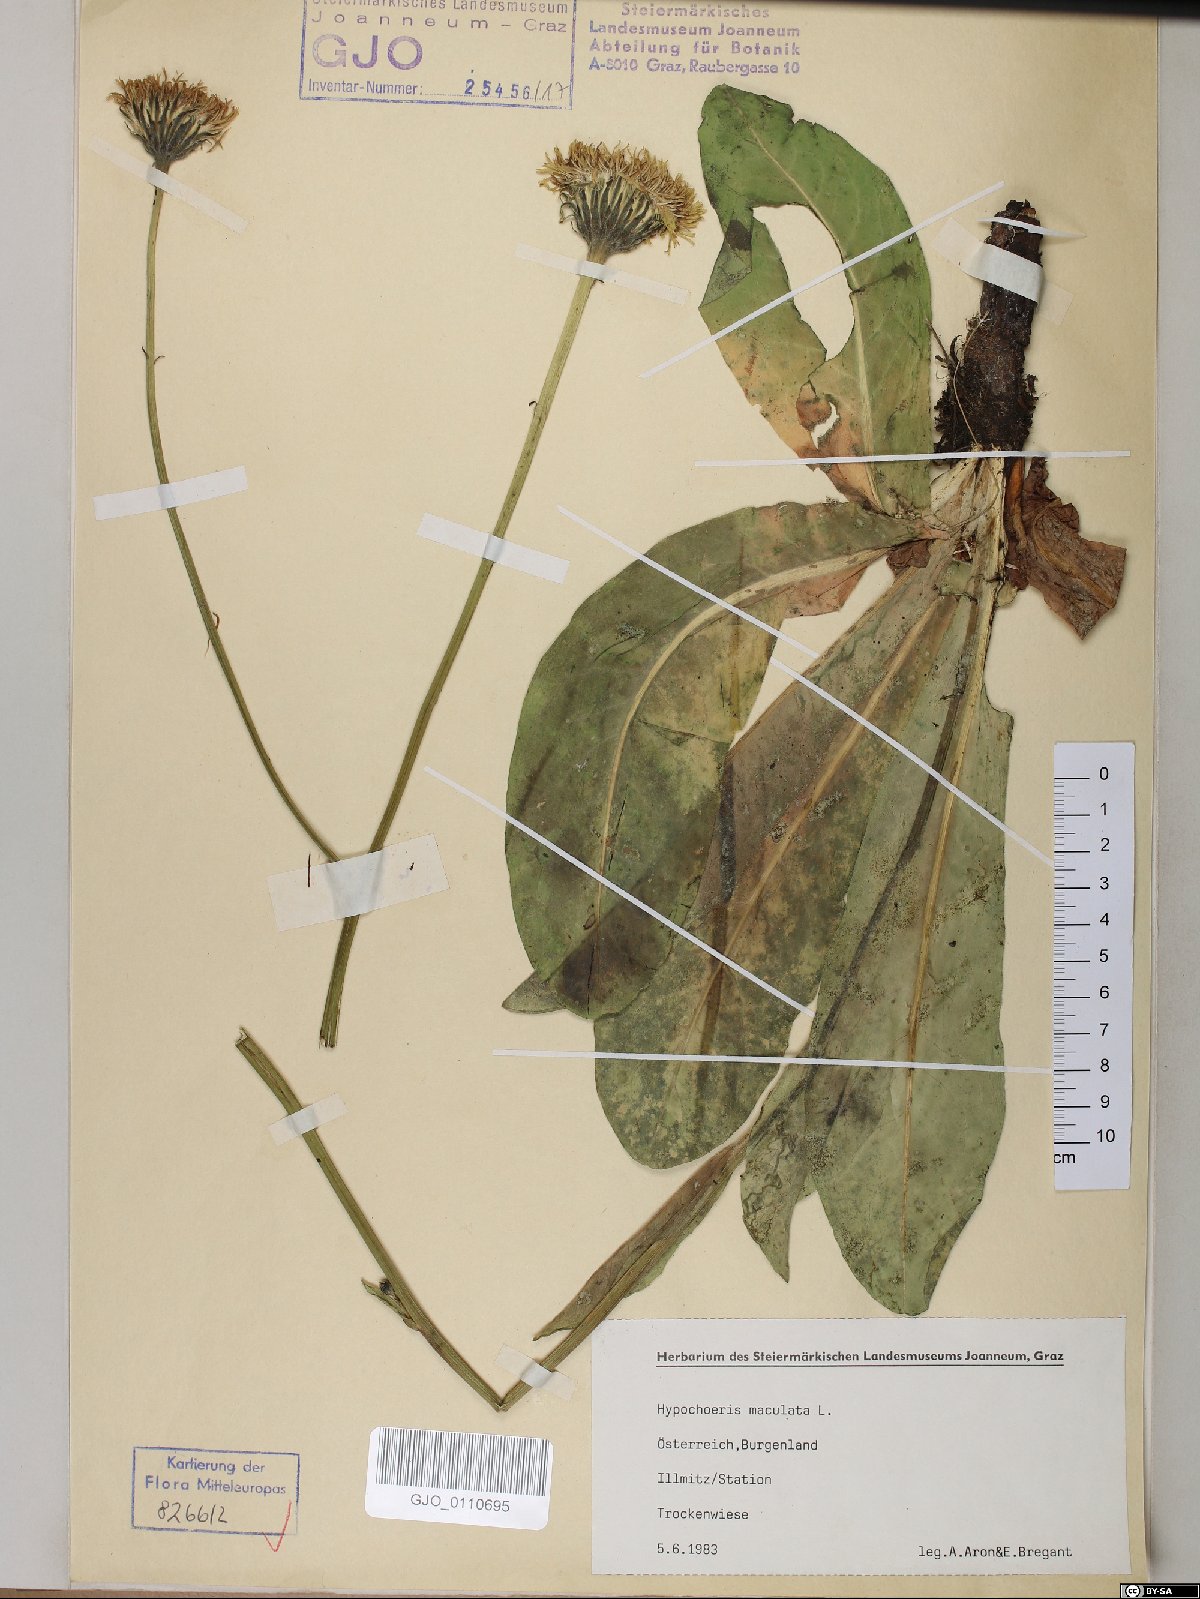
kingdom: Plantae
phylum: Tracheophyta
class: Magnoliopsida
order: Asterales
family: Asteraceae
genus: Trommsdorffia
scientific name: Trommsdorffia maculata
